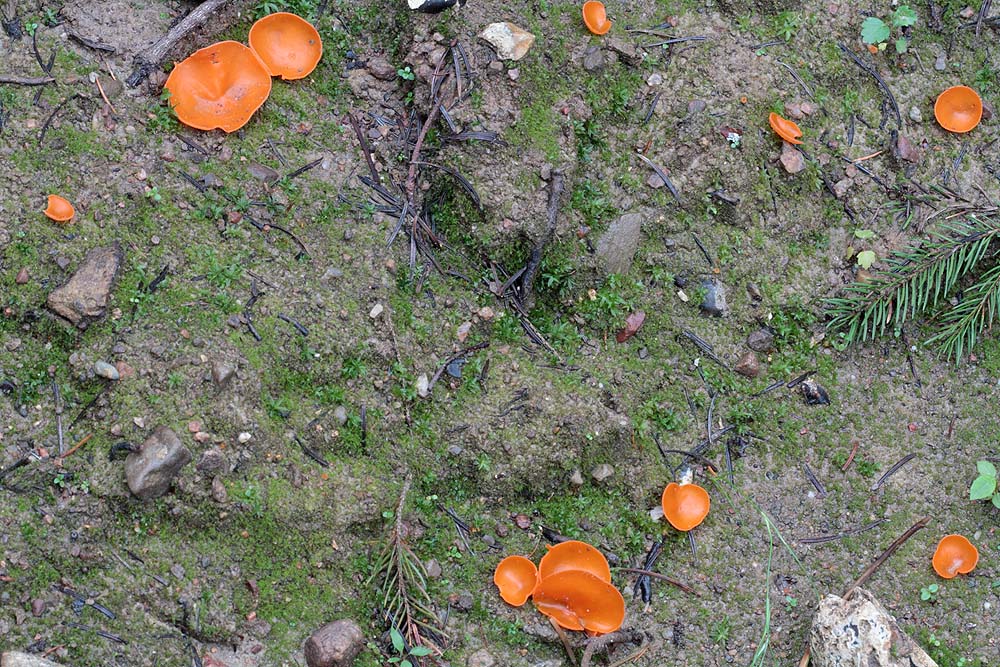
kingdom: Fungi
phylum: Ascomycota
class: Pezizomycetes
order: Pezizales
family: Pyronemataceae
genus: Aleuria
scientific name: Aleuria aurantia
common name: almindelig orangebæger
